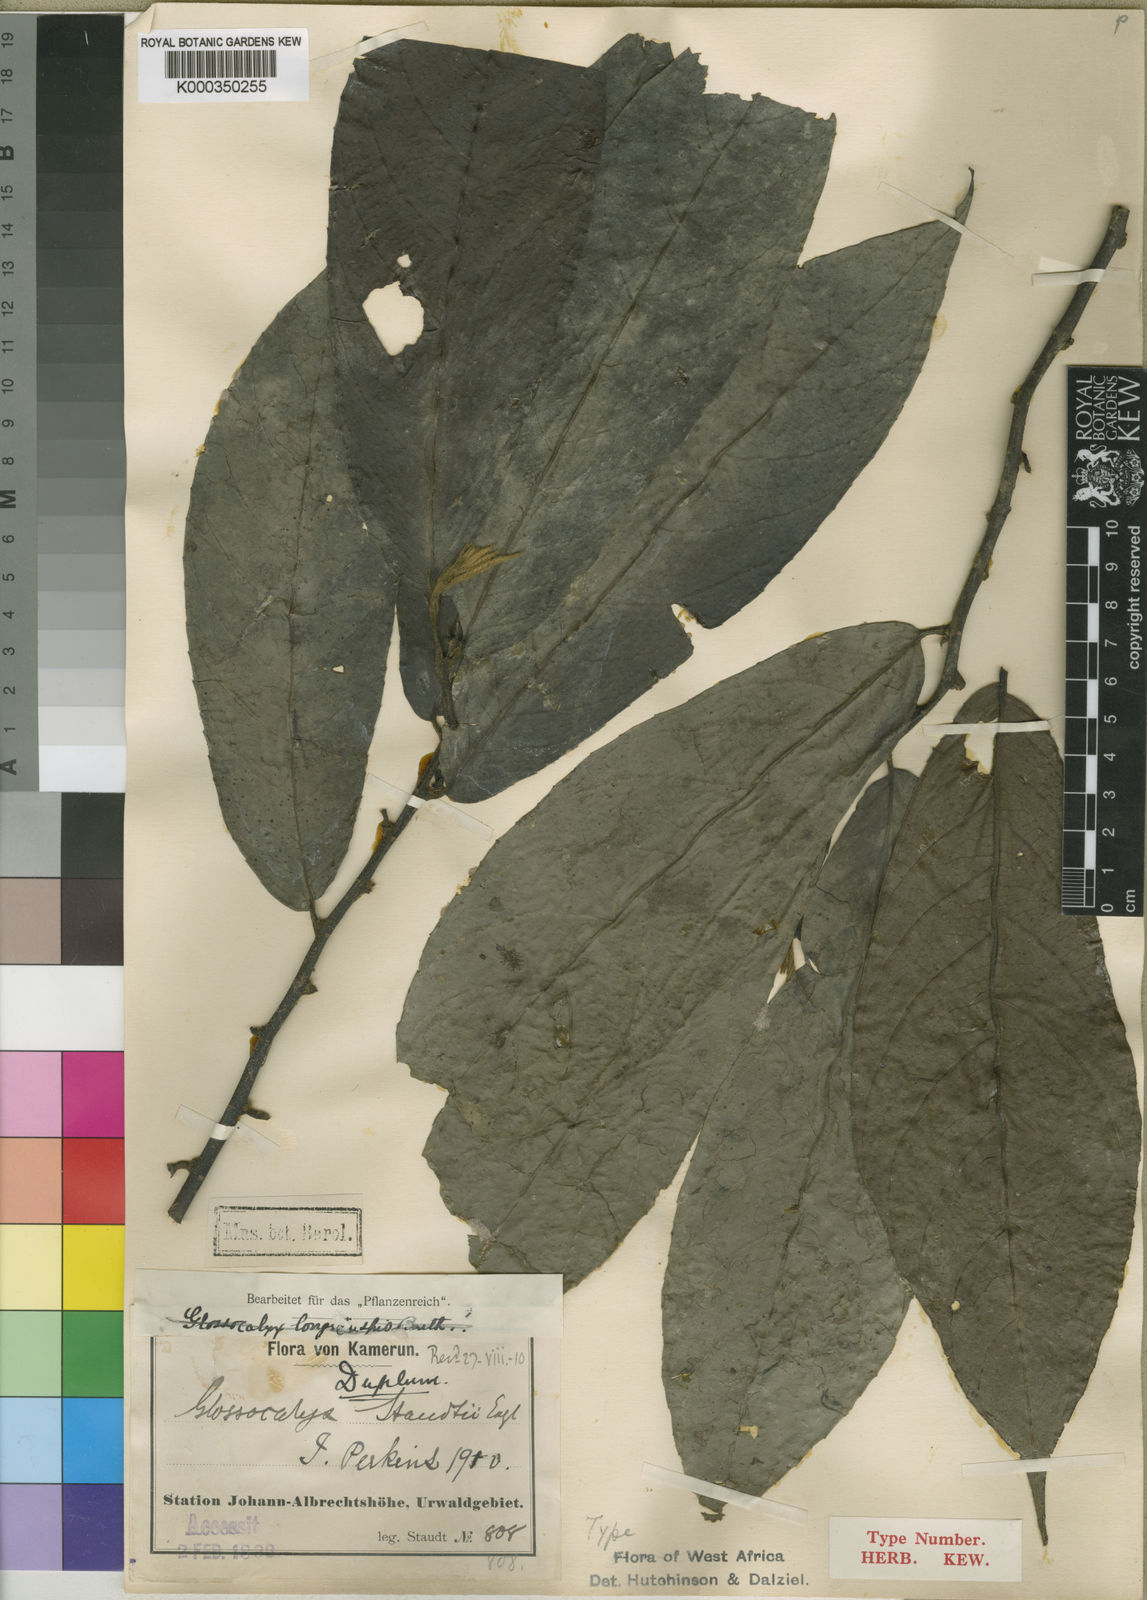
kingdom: Plantae
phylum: Tracheophyta
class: Magnoliopsida
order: Laurales
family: Siparunaceae
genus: Glossocalyx
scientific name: Glossocalyx brevipes
